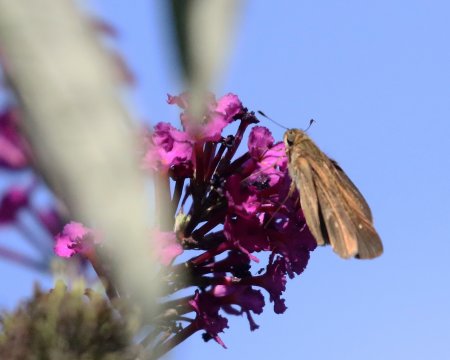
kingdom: Animalia
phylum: Arthropoda
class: Insecta
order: Lepidoptera
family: Hesperiidae
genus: Panoquina
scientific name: Panoquina ocola
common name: Ocola Skipper
